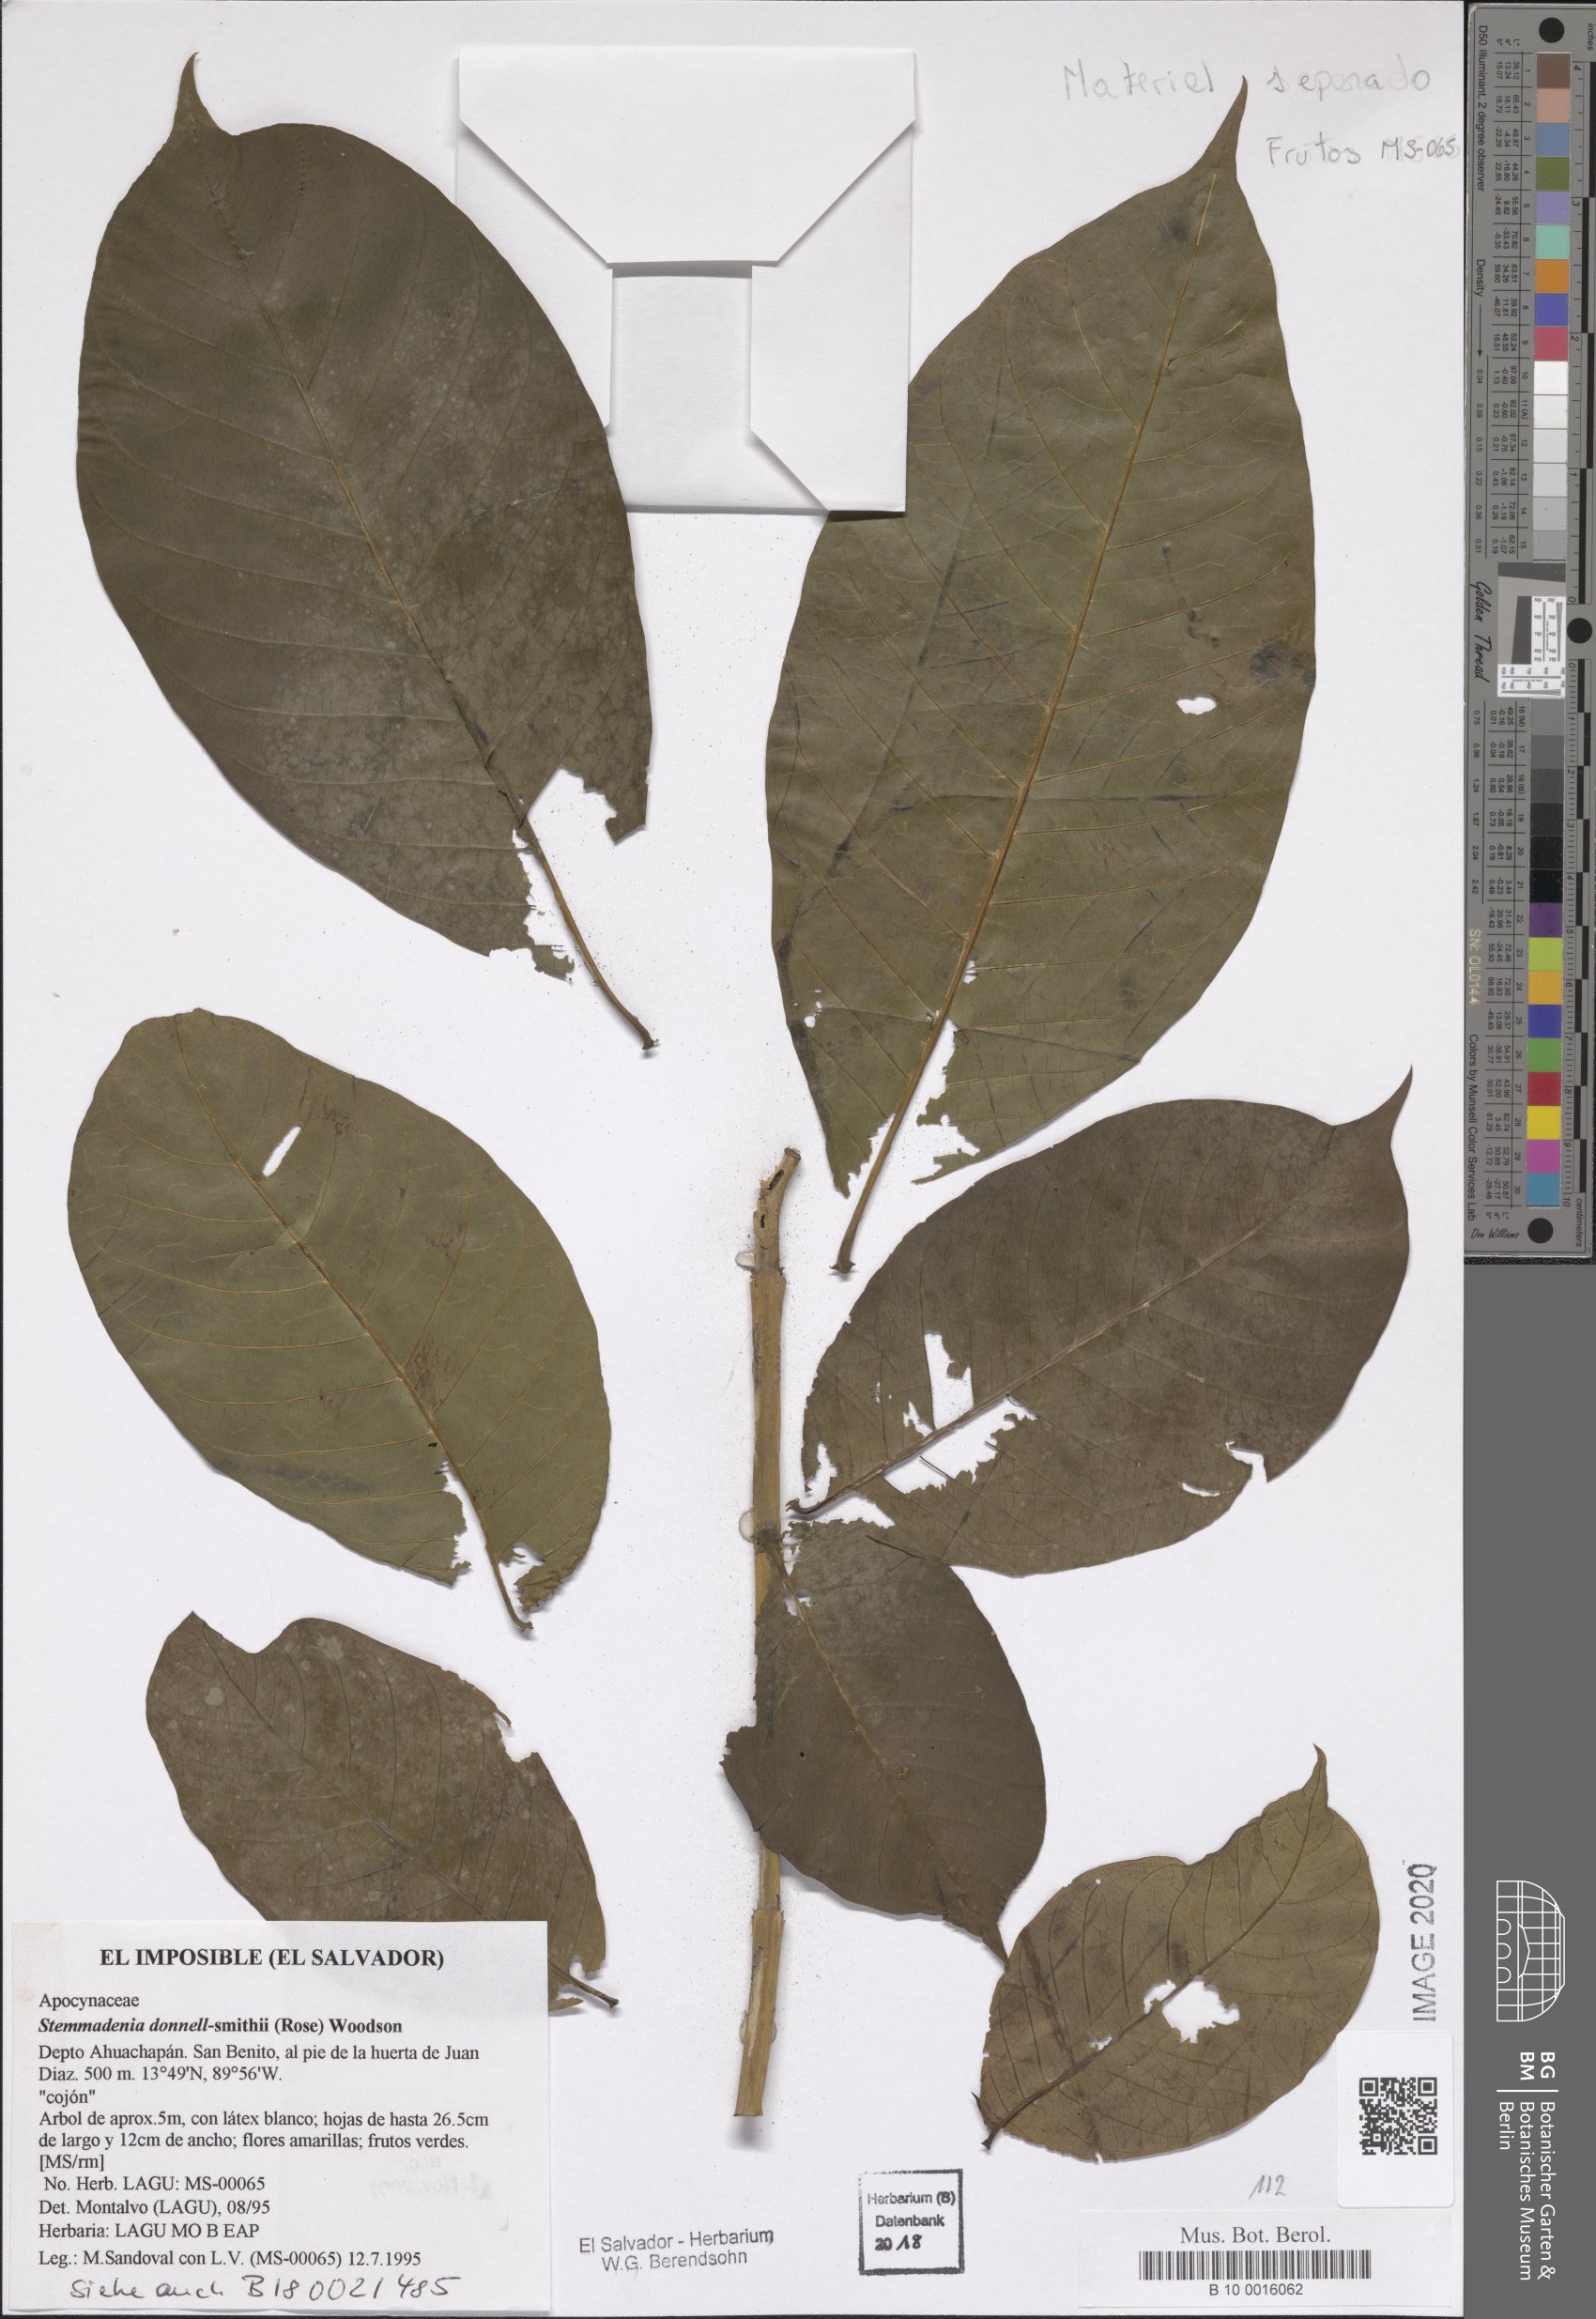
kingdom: Plantae
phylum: Tracheophyta
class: Magnoliopsida
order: Gentianales
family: Apocynaceae
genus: Tabernaemontana
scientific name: Tabernaemontana donnell-smithii
